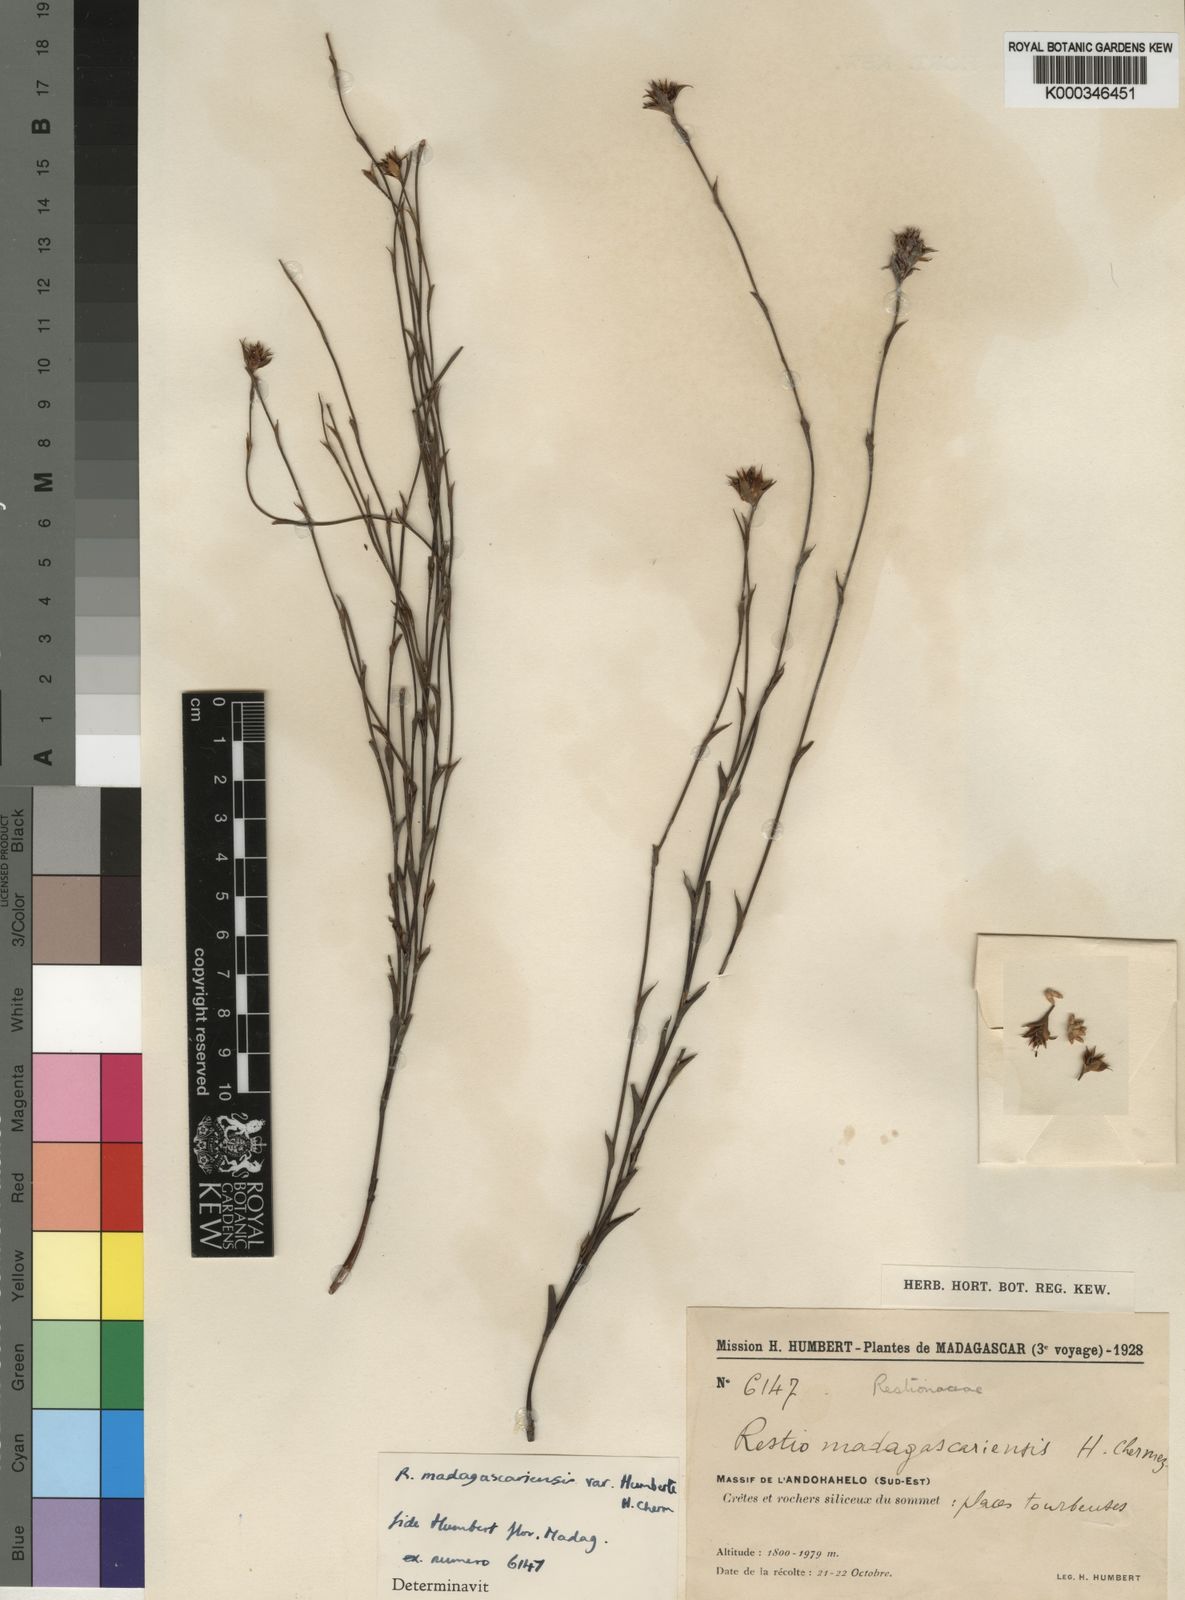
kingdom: Plantae
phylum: Tracheophyta
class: Liliopsida
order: Poales
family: Restionaceae
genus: Platycaulos
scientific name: Platycaulos mahonii
